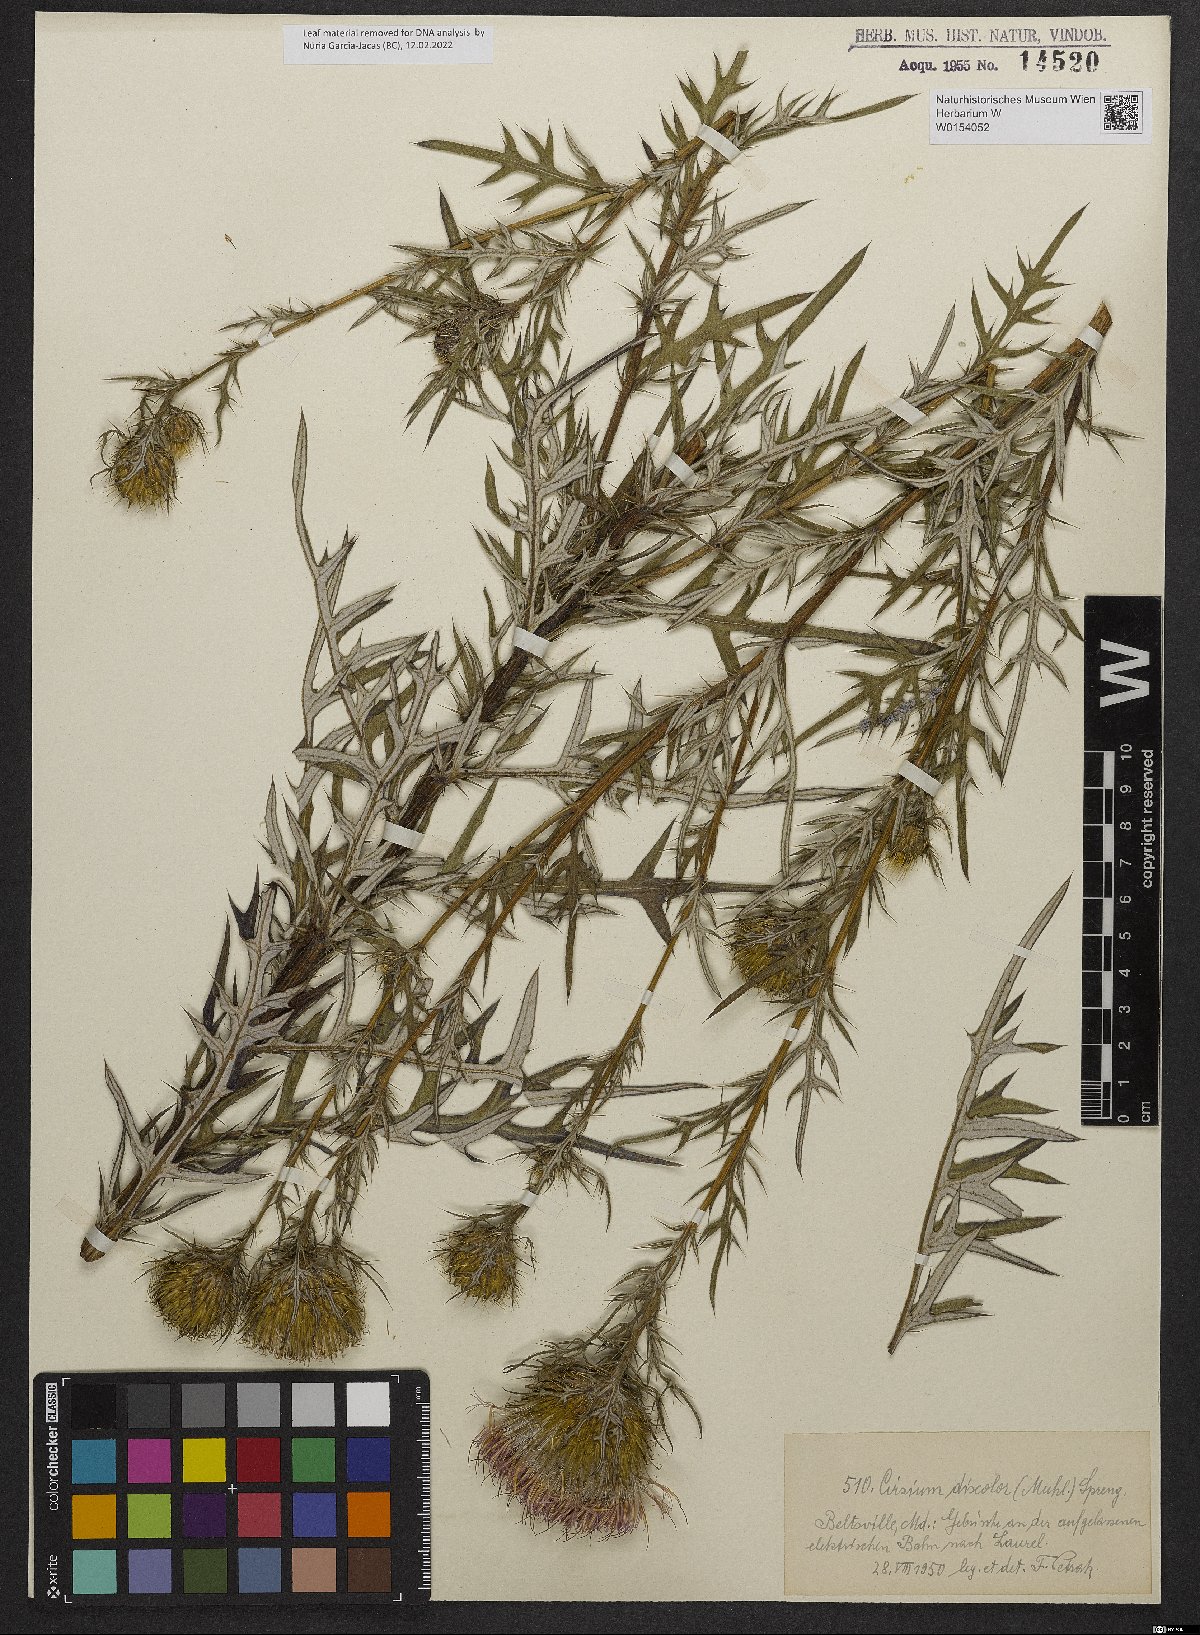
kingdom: Plantae
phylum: Tracheophyta
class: Magnoliopsida
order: Asterales
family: Asteraceae
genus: Lophiolepis
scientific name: Lophiolepis ciliata
